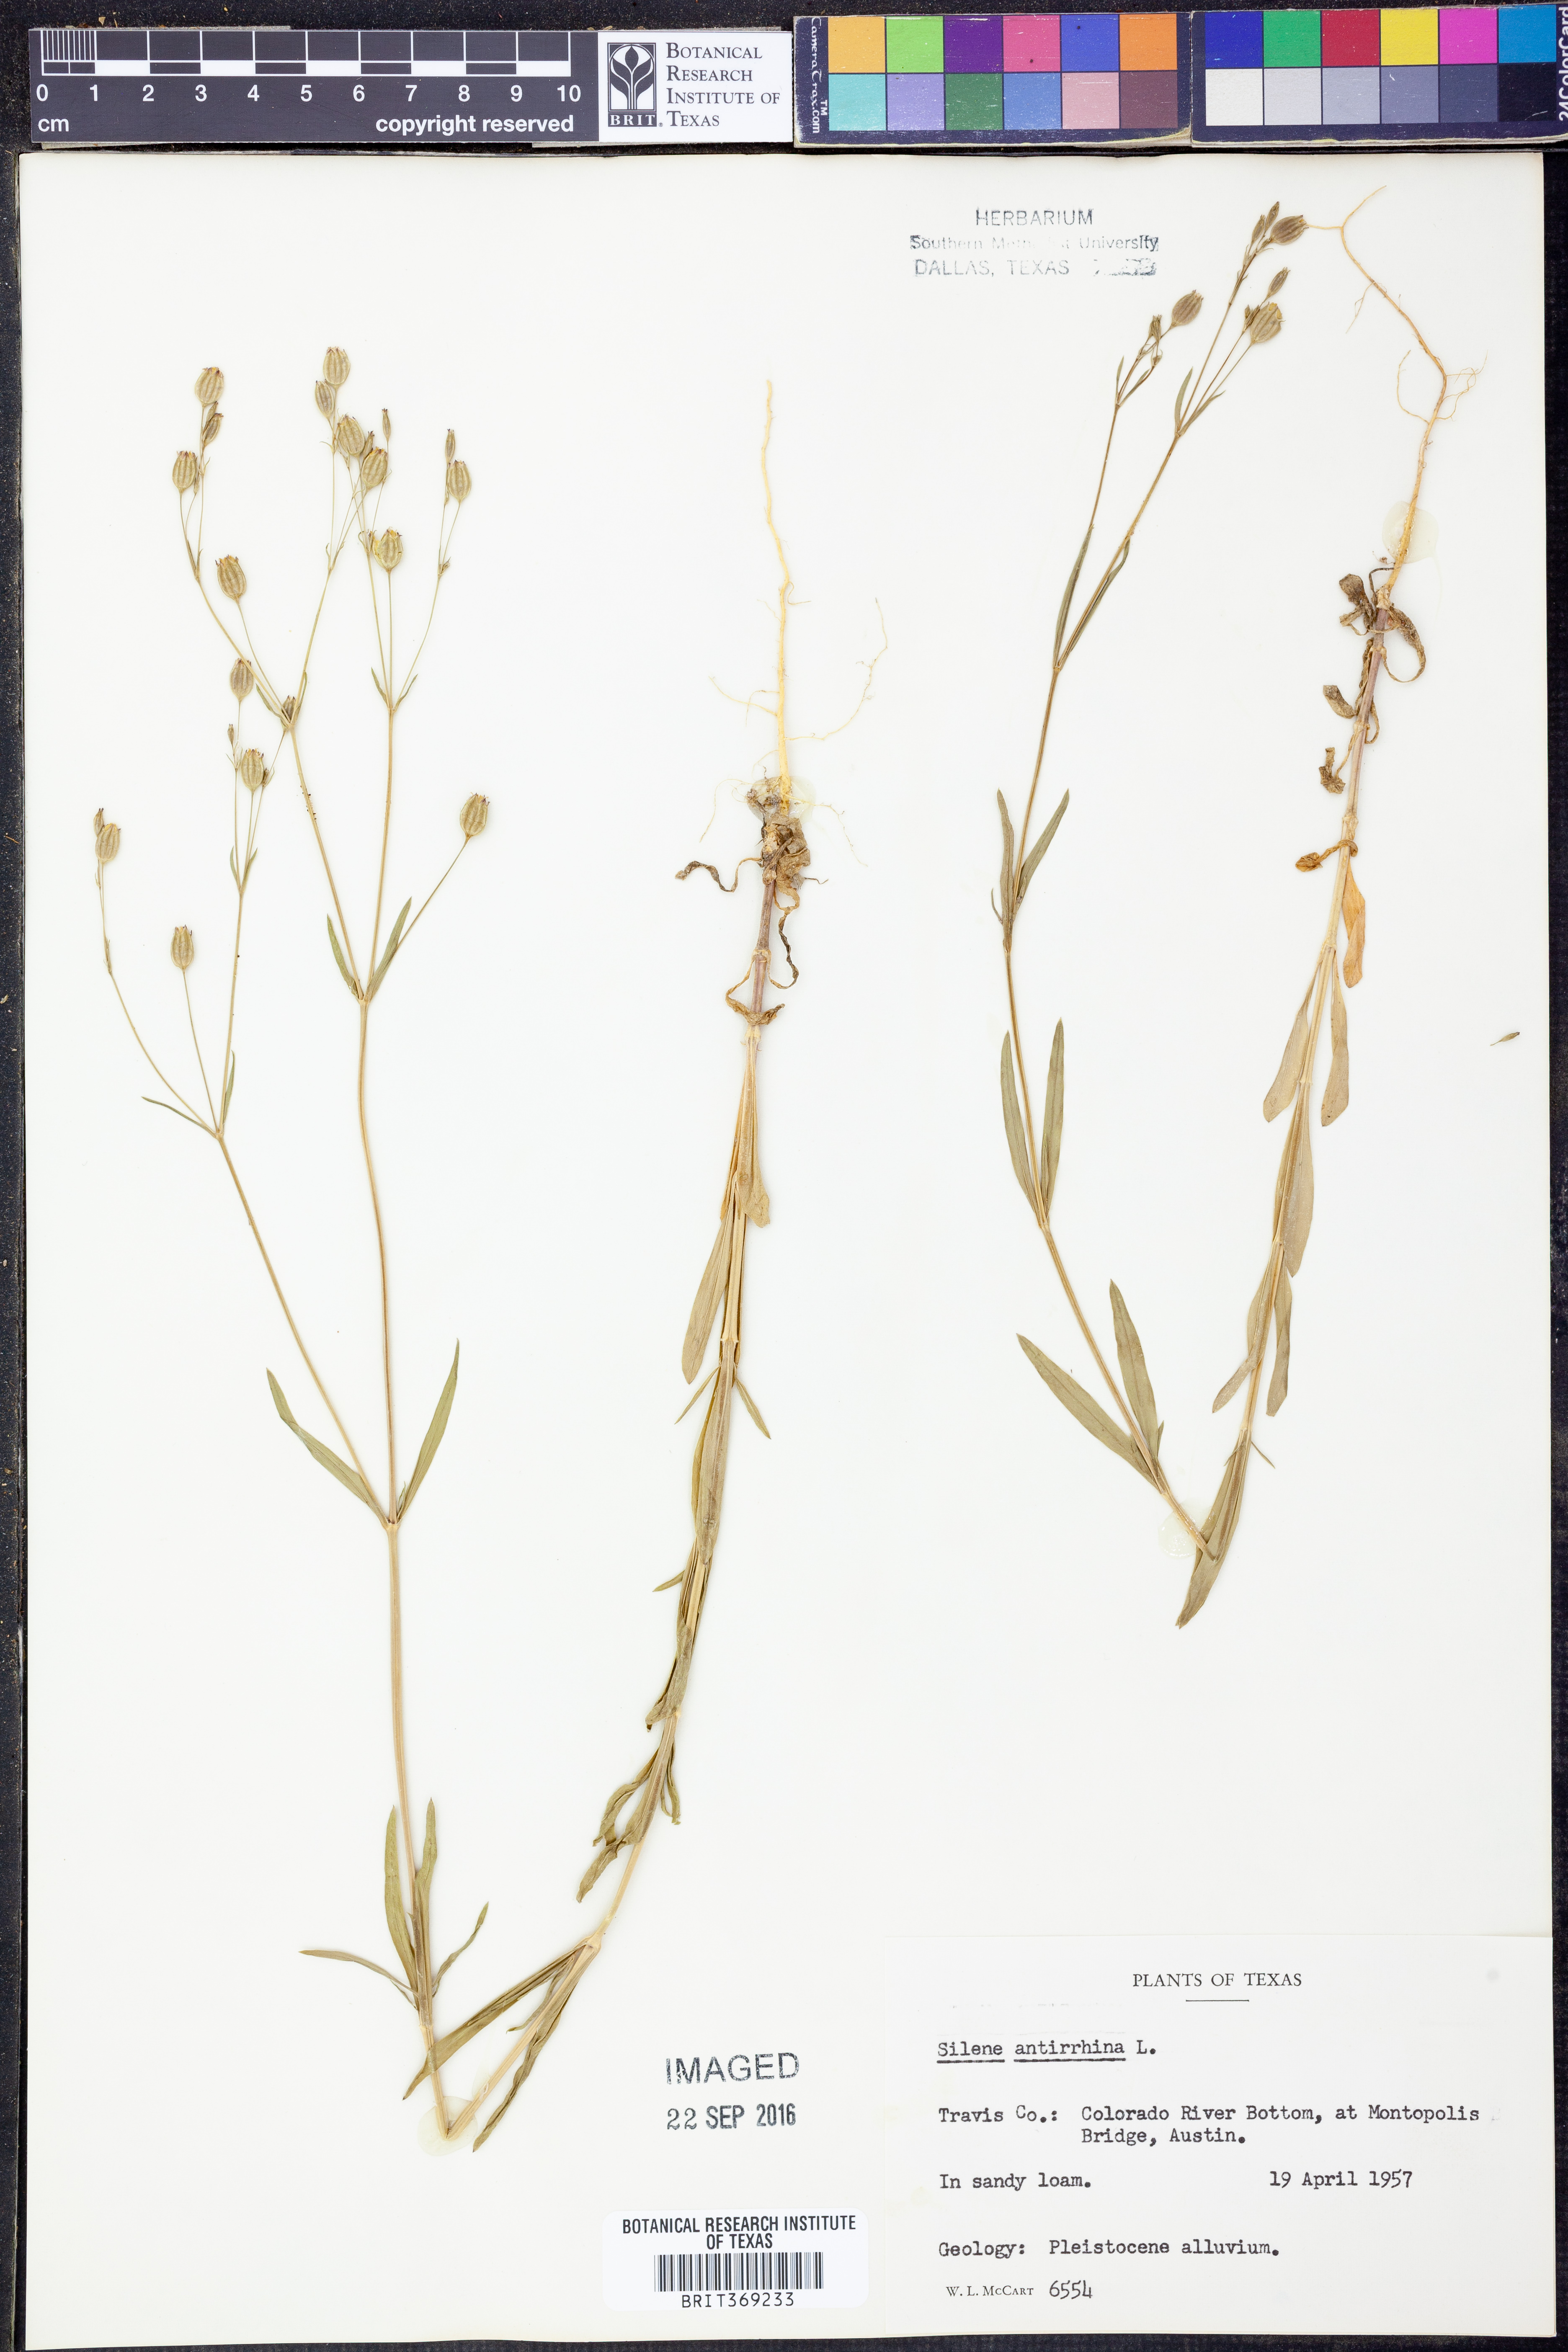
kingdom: Plantae
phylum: Tracheophyta
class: Magnoliopsida
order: Caryophyllales
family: Caryophyllaceae
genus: Silene
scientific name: Silene antirrhina
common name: Sleepy catchfly
